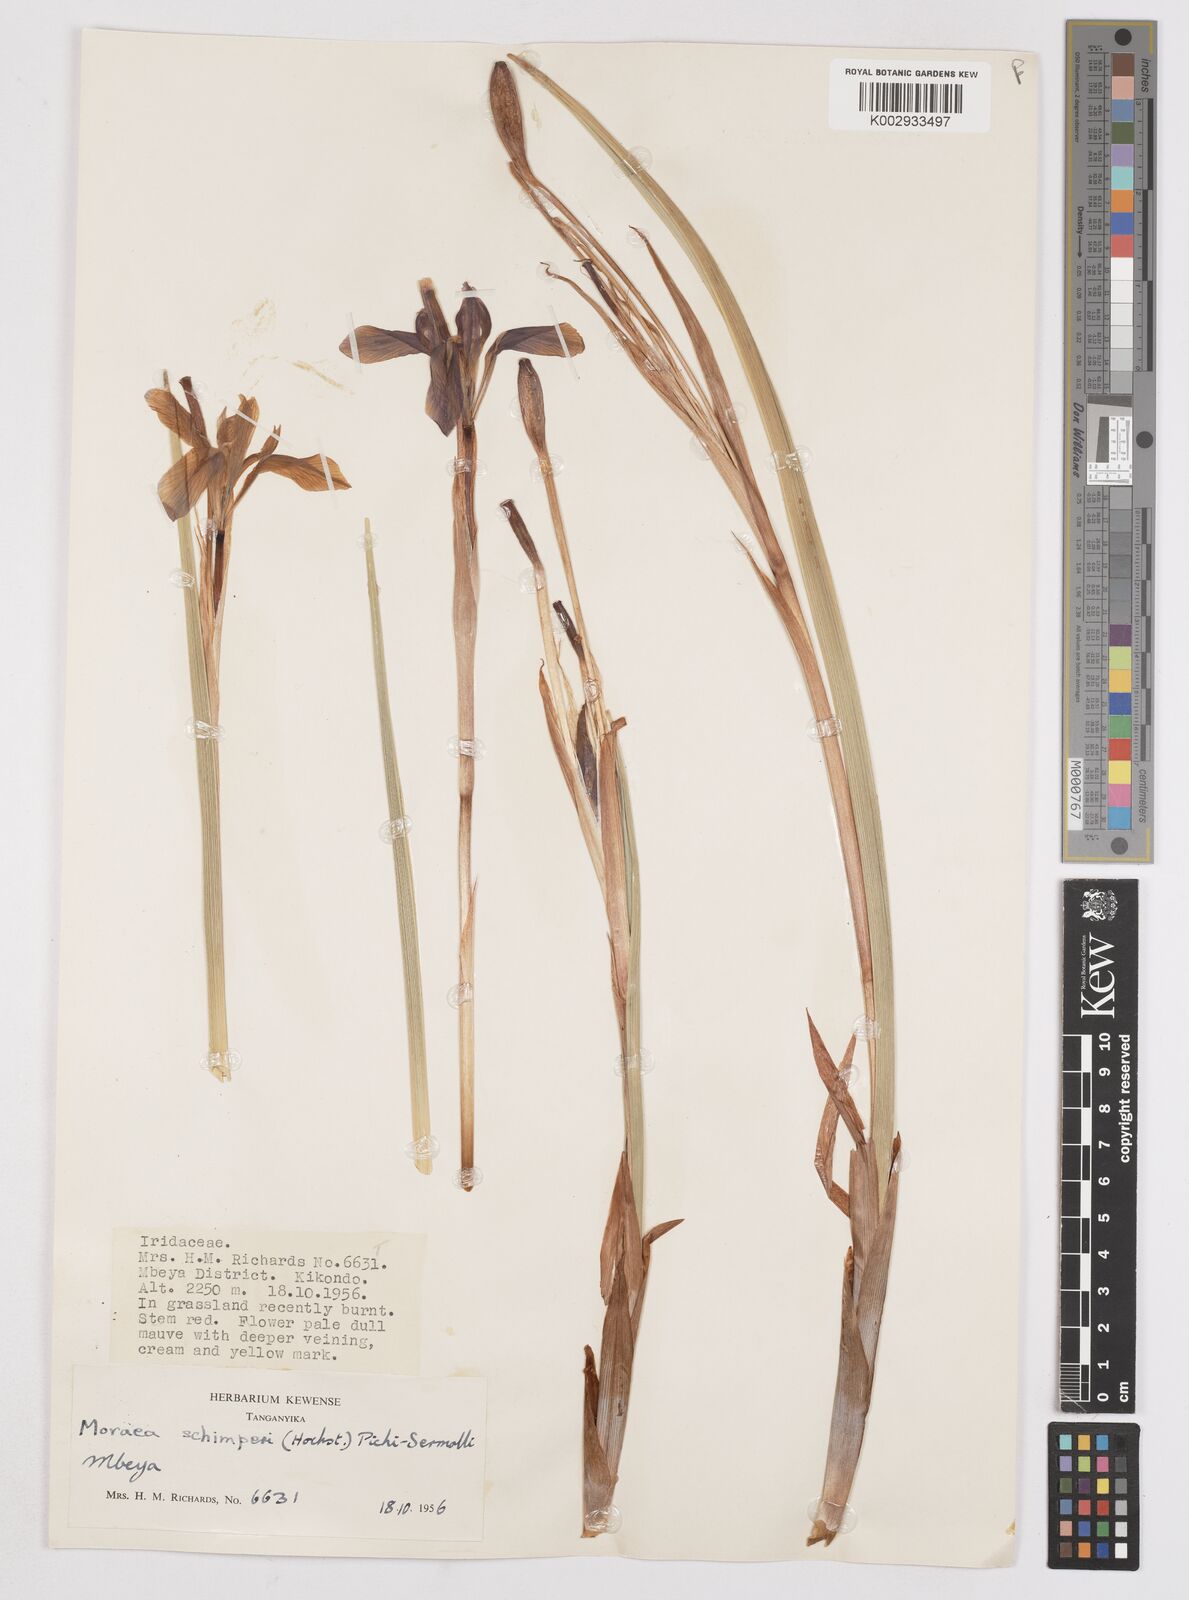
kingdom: Plantae
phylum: Tracheophyta
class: Liliopsida
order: Asparagales
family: Iridaceae
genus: Moraea
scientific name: Moraea schimperi
